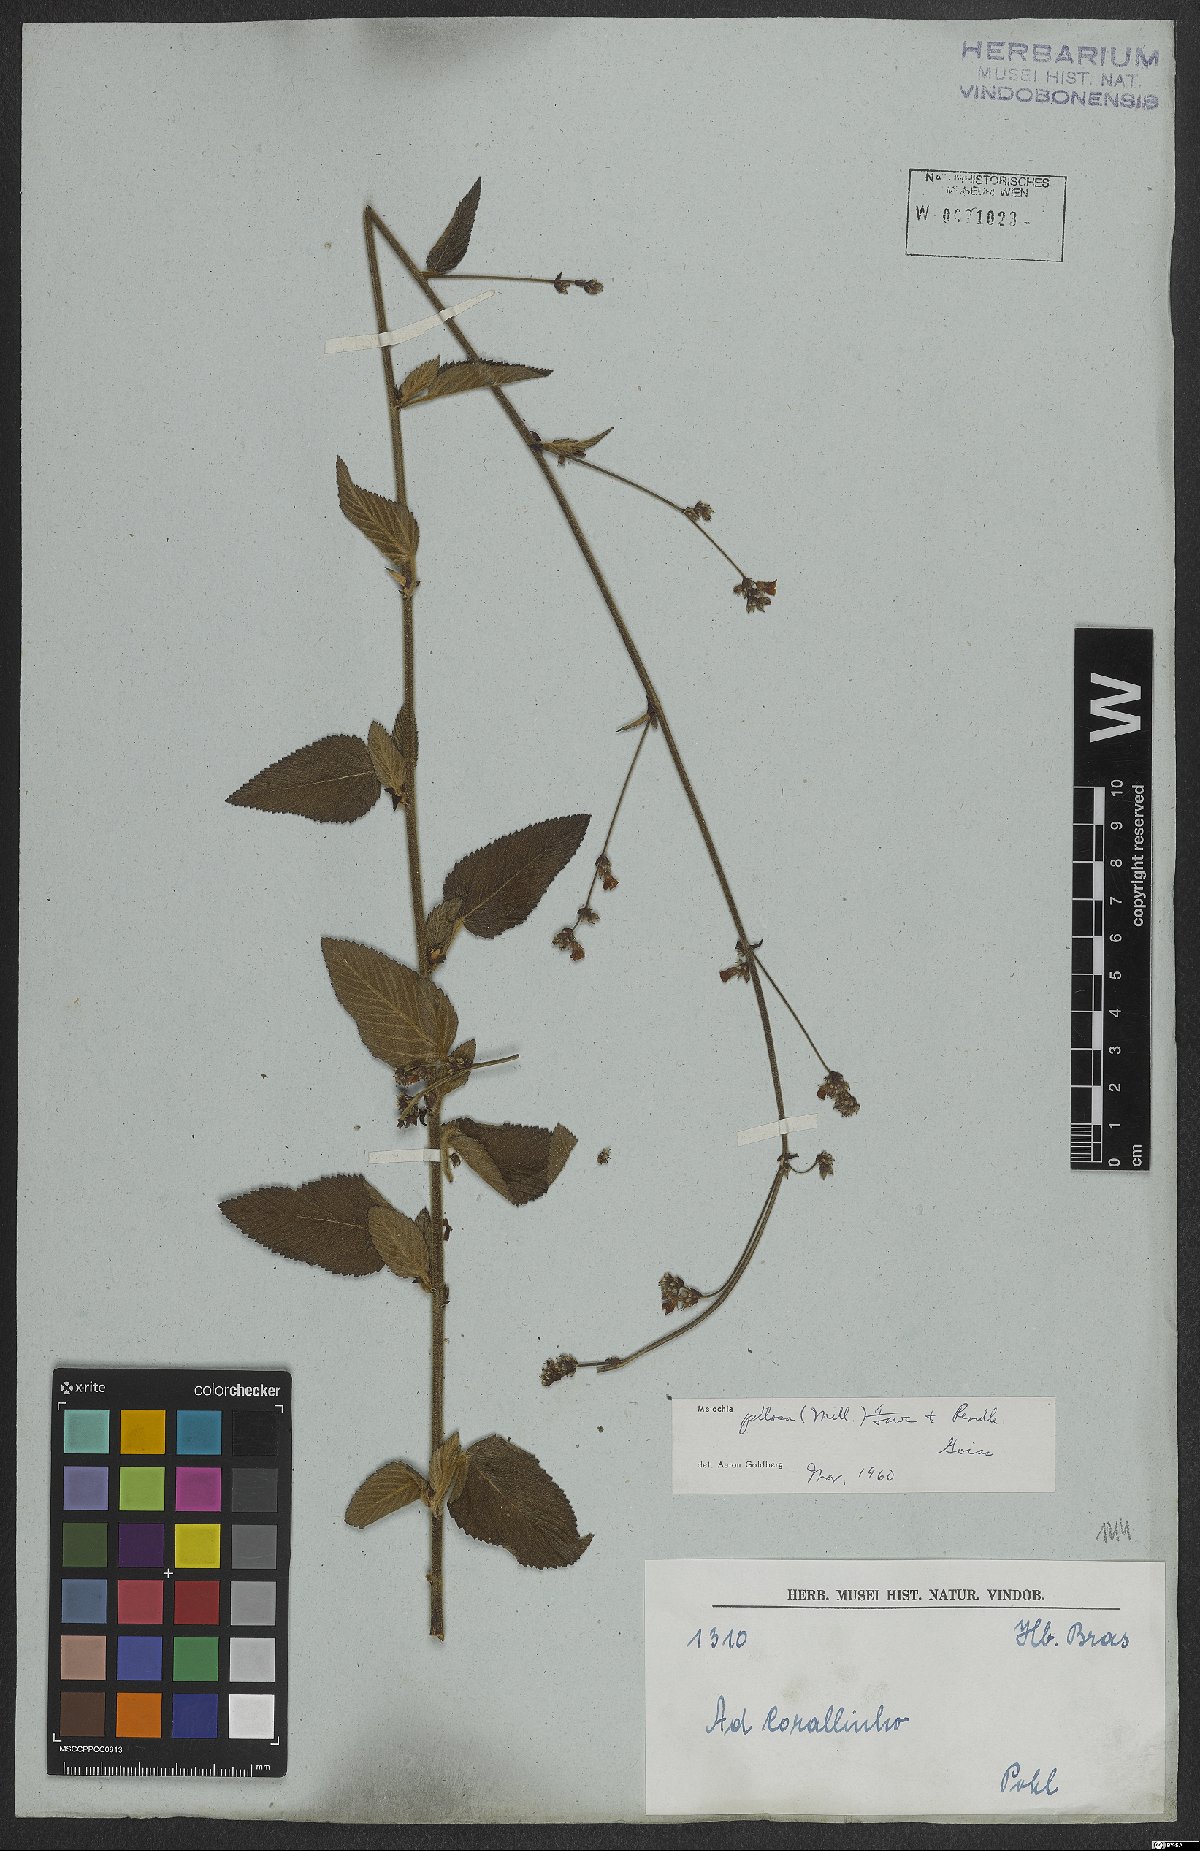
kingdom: Plantae
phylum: Tracheophyta
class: Magnoliopsida
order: Malvales
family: Malvaceae
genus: Melochia
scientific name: Melochia pilosa
